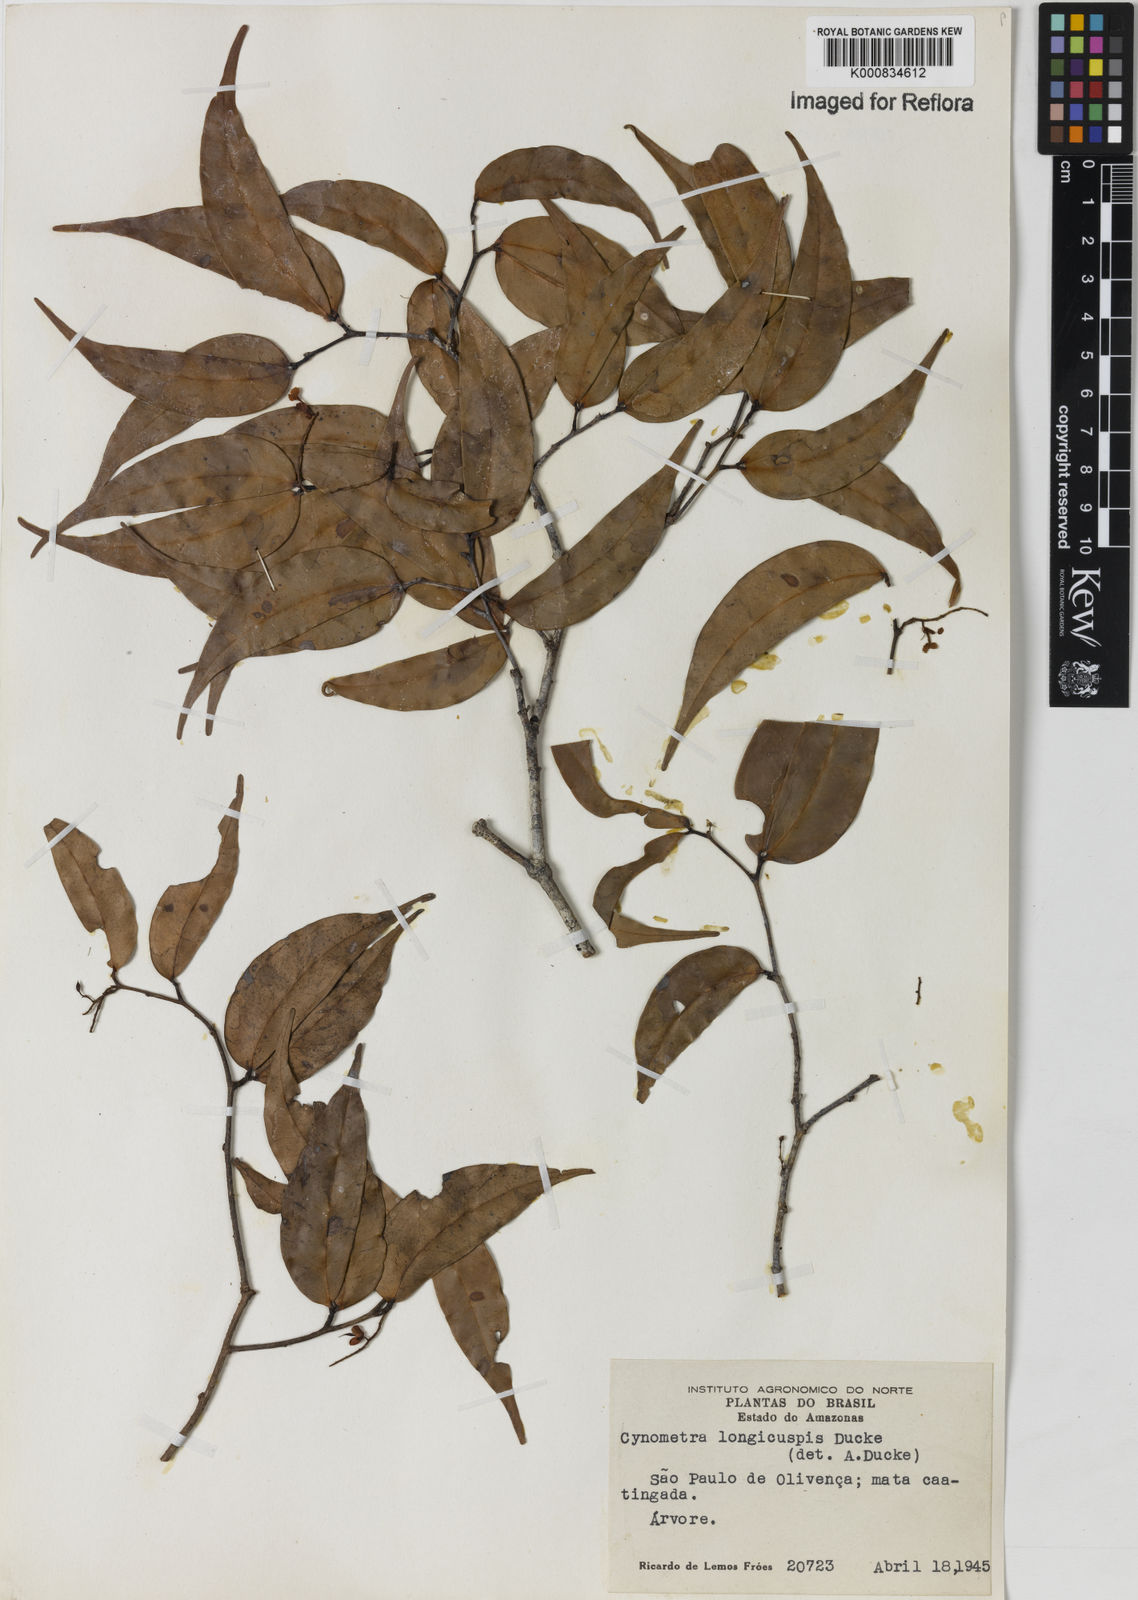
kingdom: Plantae
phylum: Tracheophyta
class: Magnoliopsida
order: Fabales
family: Fabaceae
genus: Cynometra
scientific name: Cynometra longicuspis
